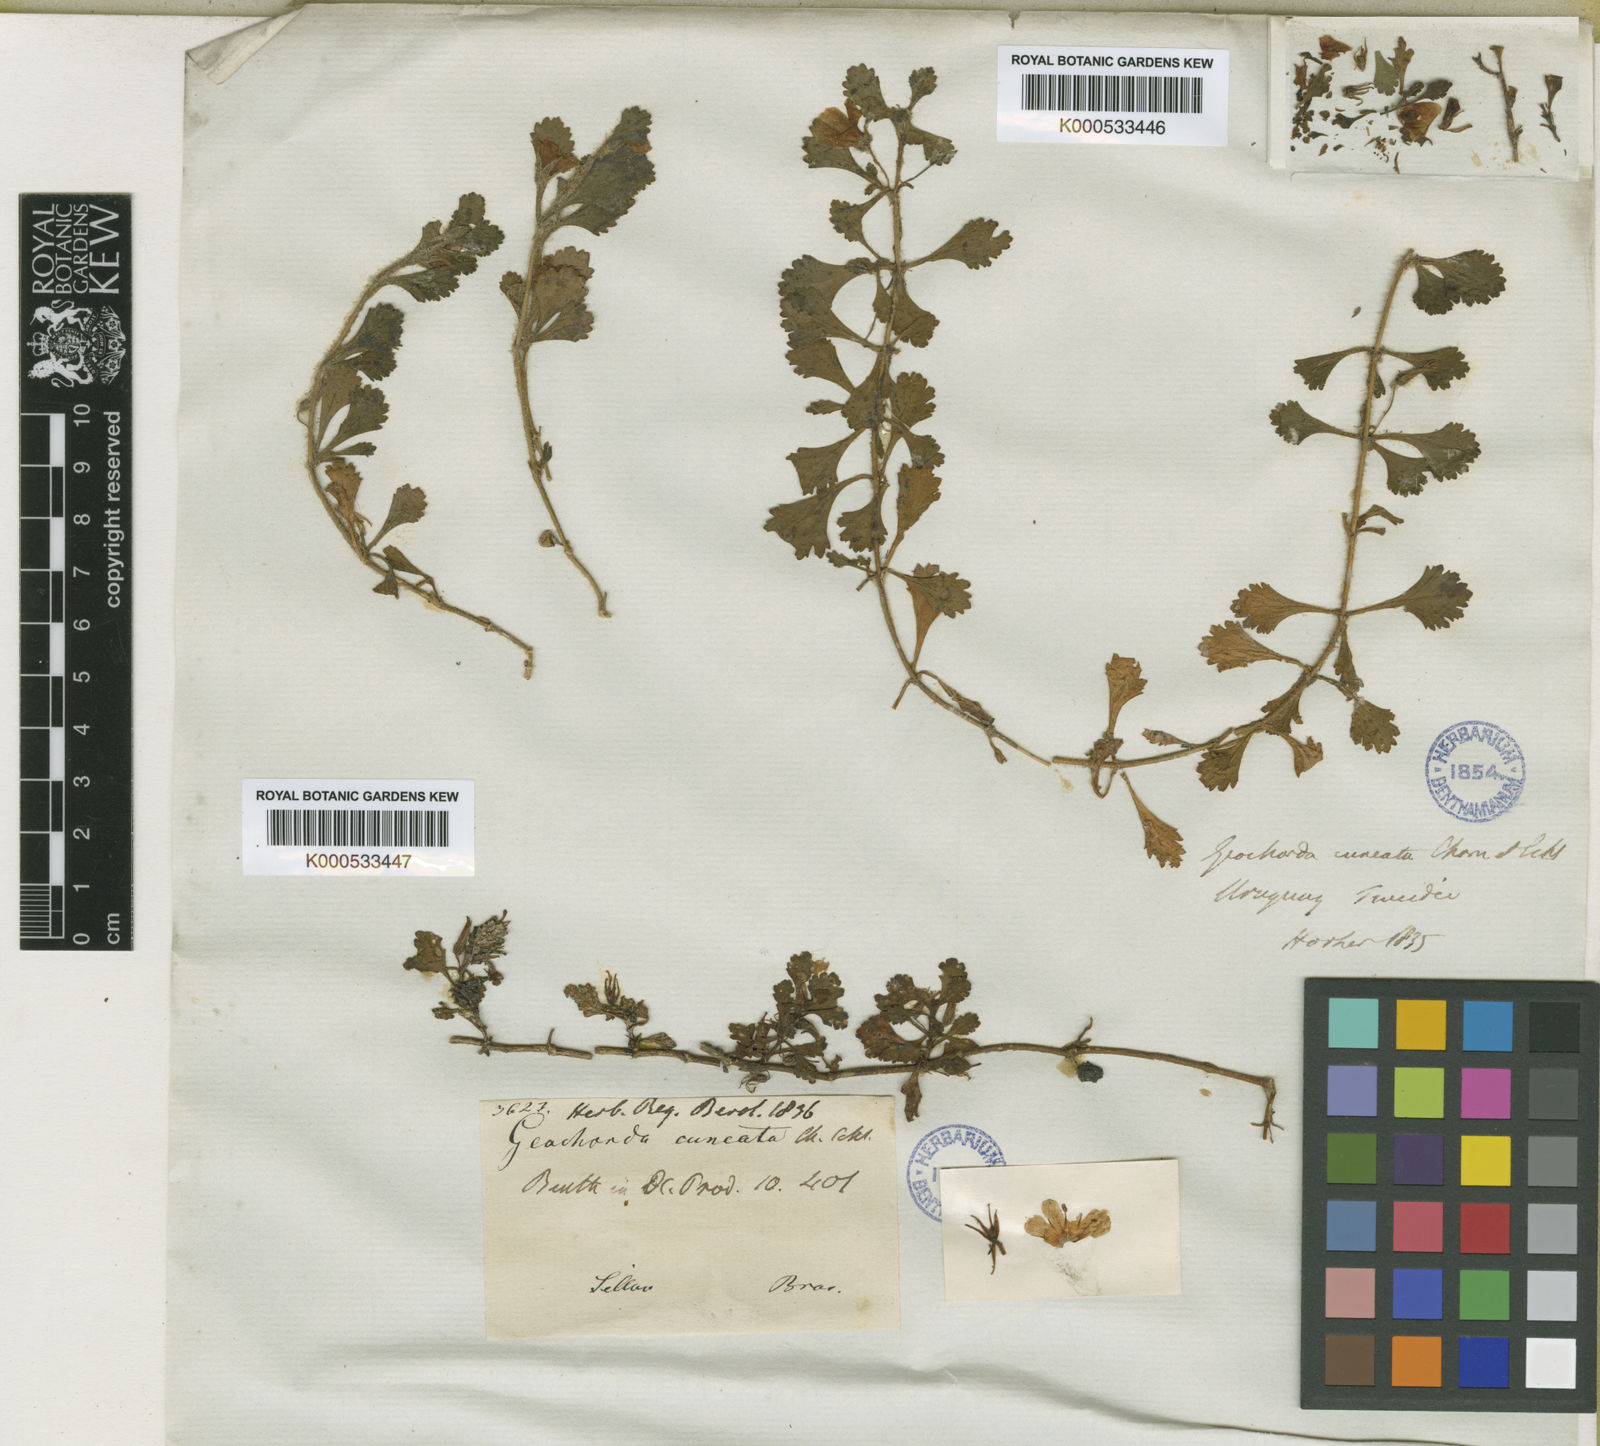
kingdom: Plantae
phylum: Tracheophyta
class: Magnoliopsida
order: Lamiales
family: Plantaginaceae
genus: Bacopa
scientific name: Bacopa
